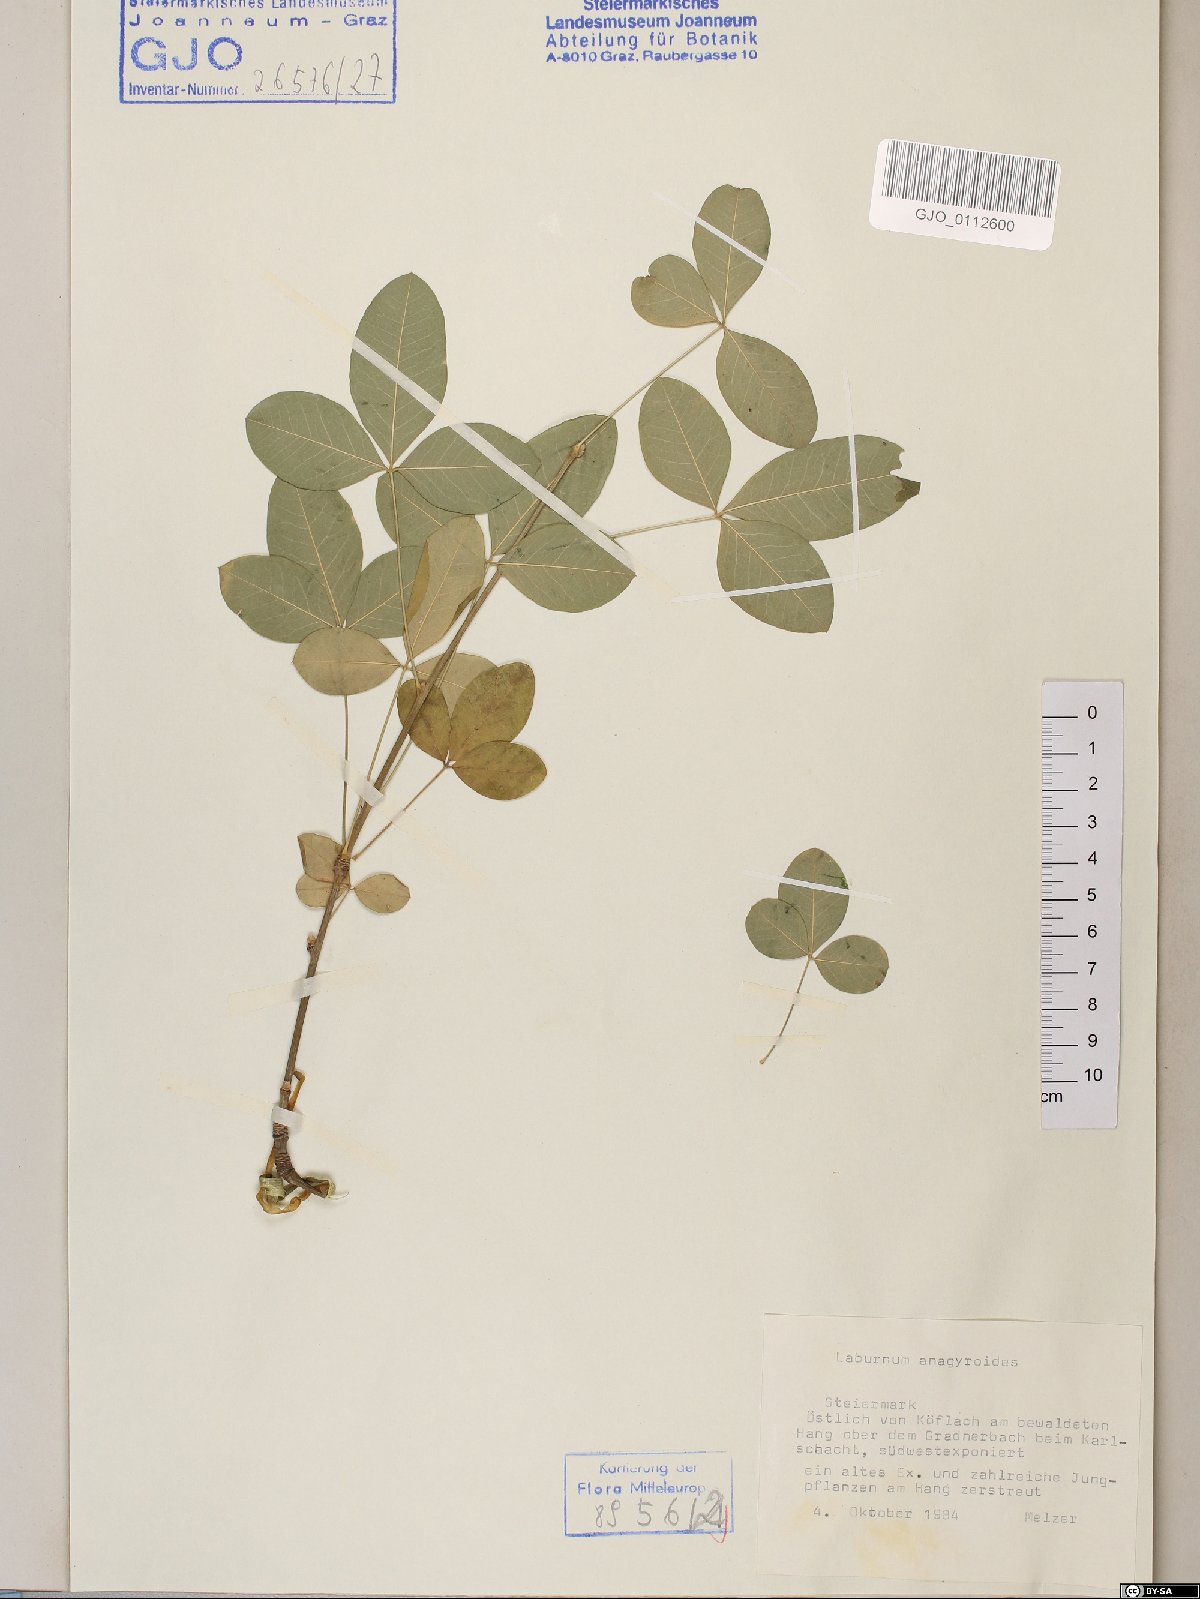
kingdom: Plantae
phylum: Tracheophyta
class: Magnoliopsida
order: Fabales
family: Fabaceae
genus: Laburnum
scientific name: Laburnum anagyroides
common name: Laburnum
